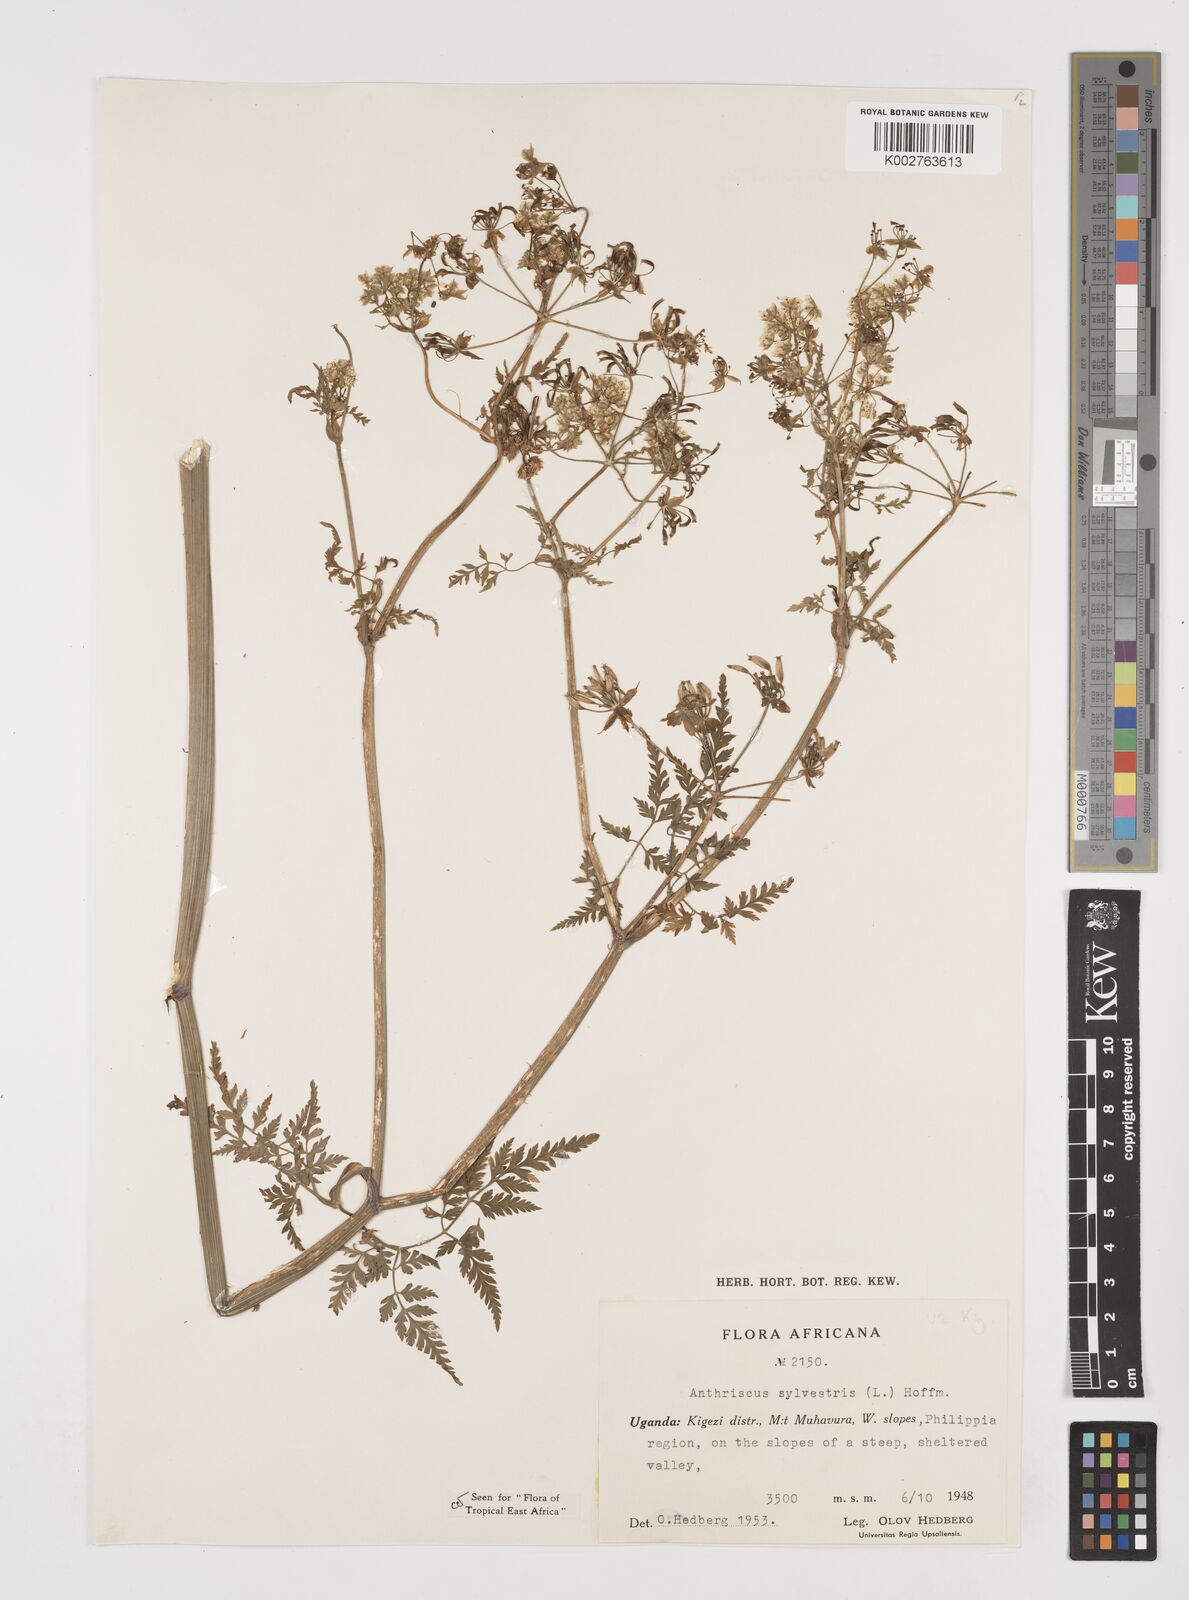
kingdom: Plantae
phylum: Tracheophyta
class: Magnoliopsida
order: Apiales
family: Apiaceae
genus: Anthriscus
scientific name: Anthriscus sylvestris
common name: Cow parsley
